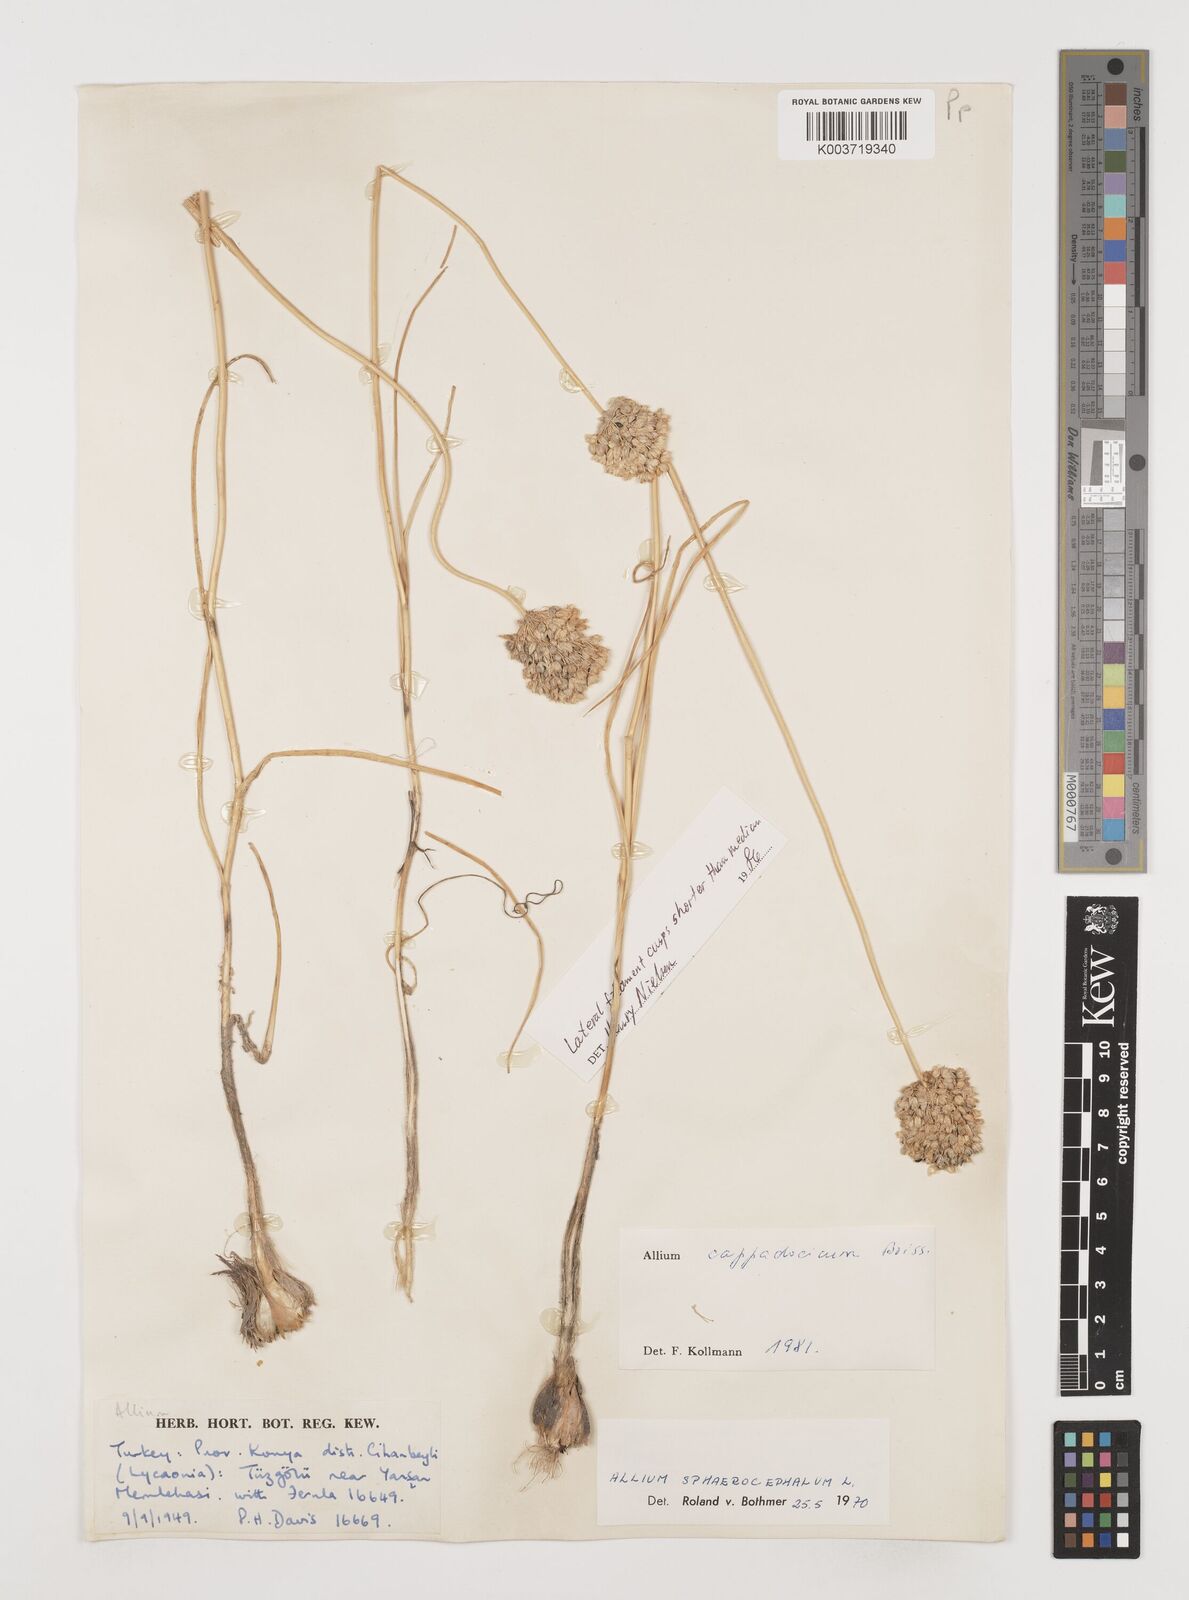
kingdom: Plantae
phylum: Tracheophyta
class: Liliopsida
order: Asparagales
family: Amaryllidaceae
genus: Allium
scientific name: Allium cappadocicum
